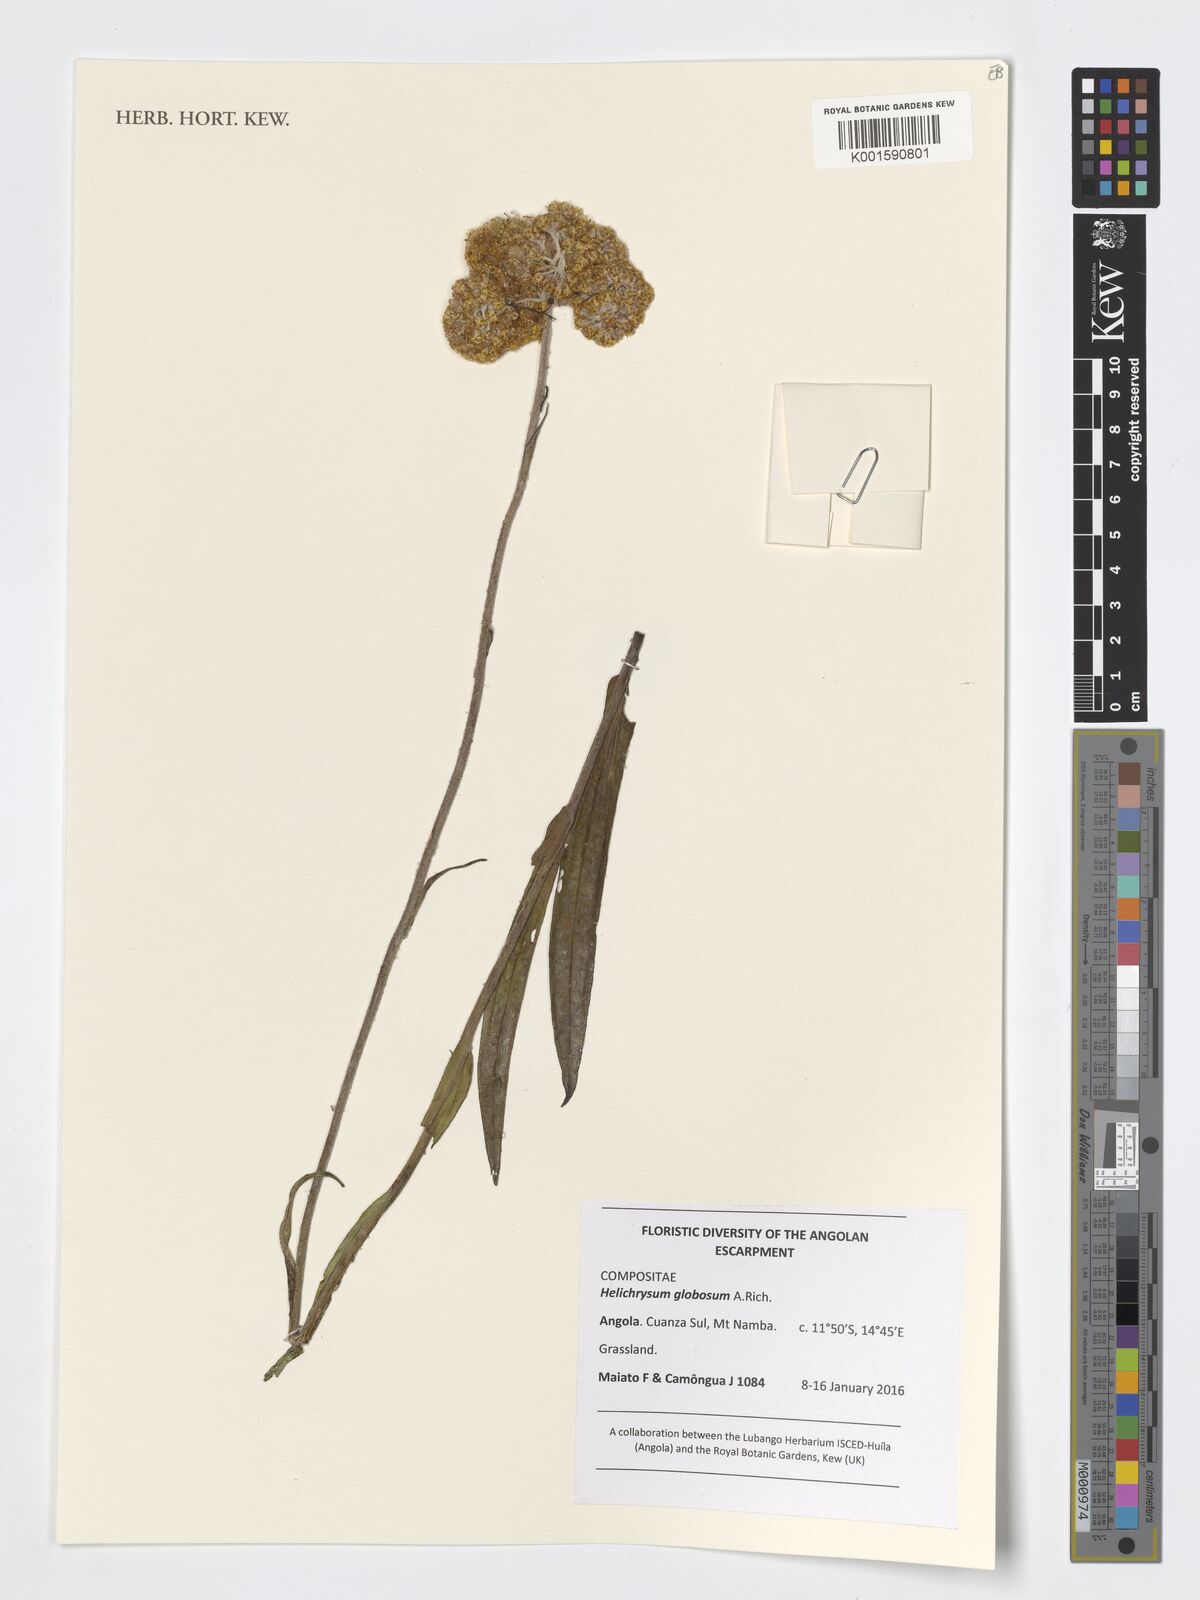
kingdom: Plantae
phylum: Tracheophyta
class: Magnoliopsida
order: Asterales
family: Asteraceae
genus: Helichrysum
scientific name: Helichrysum globosum
